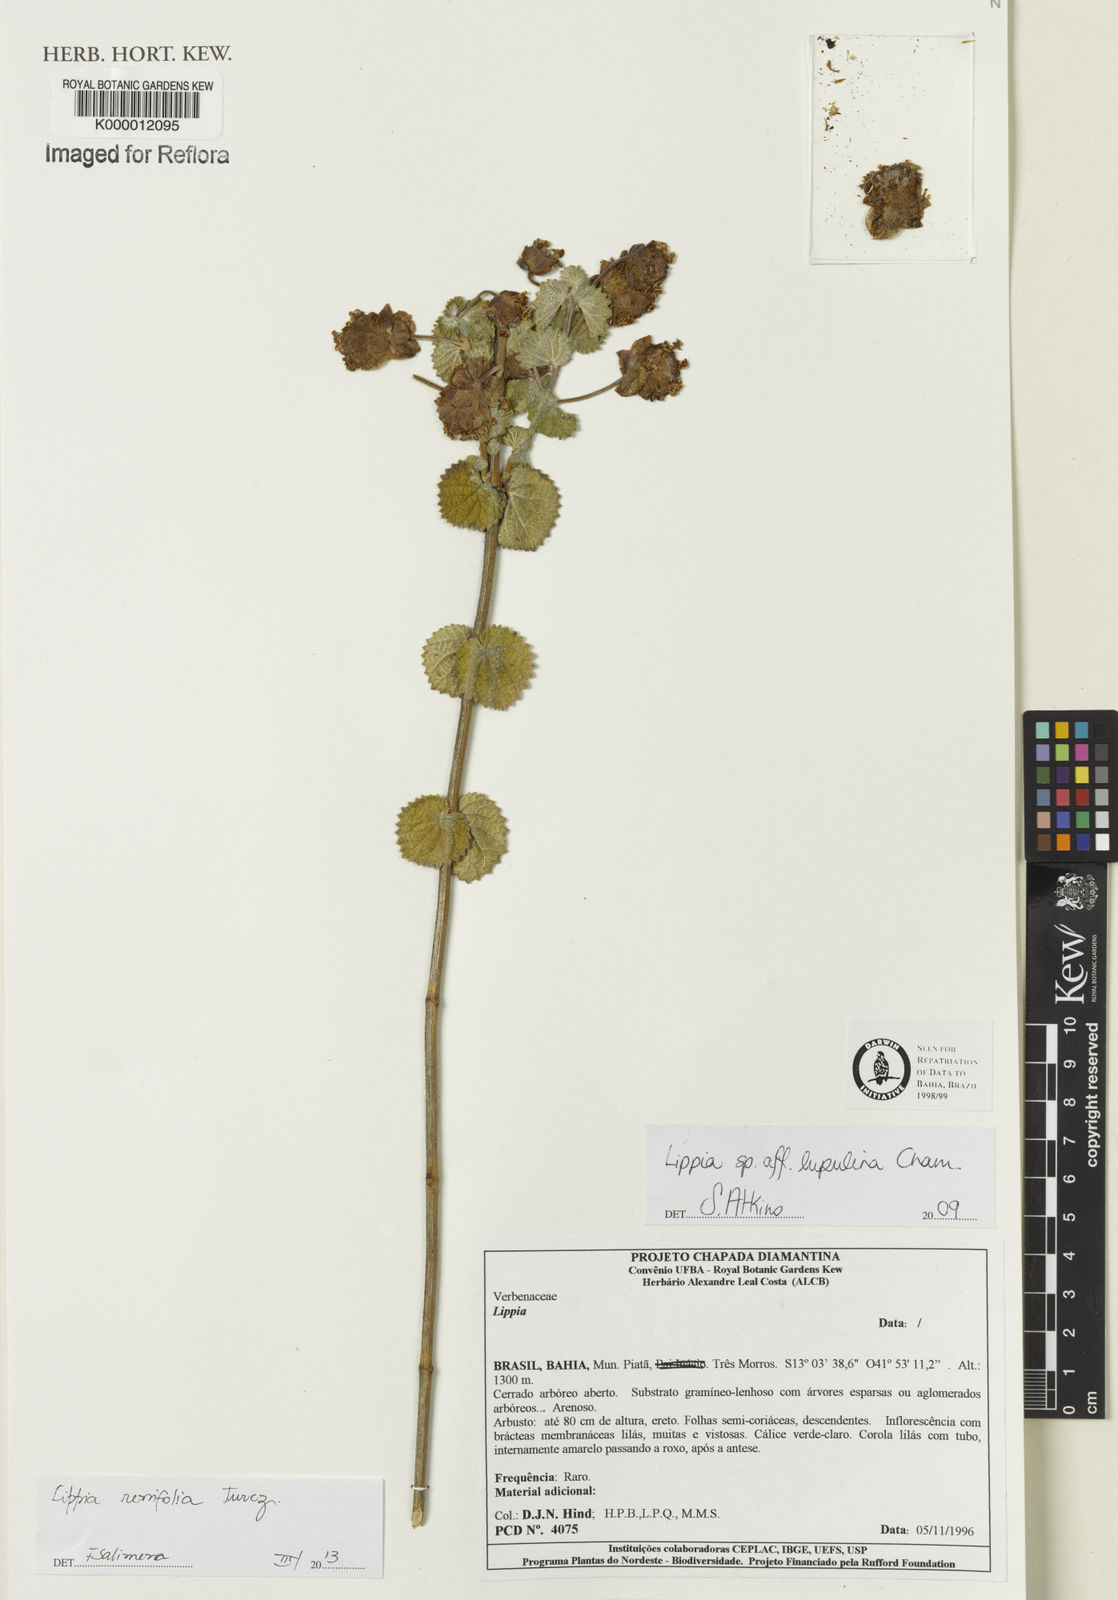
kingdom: Plantae
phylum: Tracheophyta
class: Magnoliopsida
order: Lamiales
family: Verbenaceae
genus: Lippia
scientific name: Lippia
